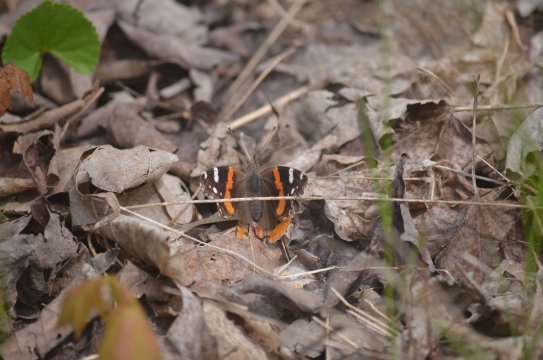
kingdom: Animalia
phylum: Arthropoda
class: Insecta
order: Lepidoptera
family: Nymphalidae
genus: Vanessa
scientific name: Vanessa atalanta
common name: Red Admiral
